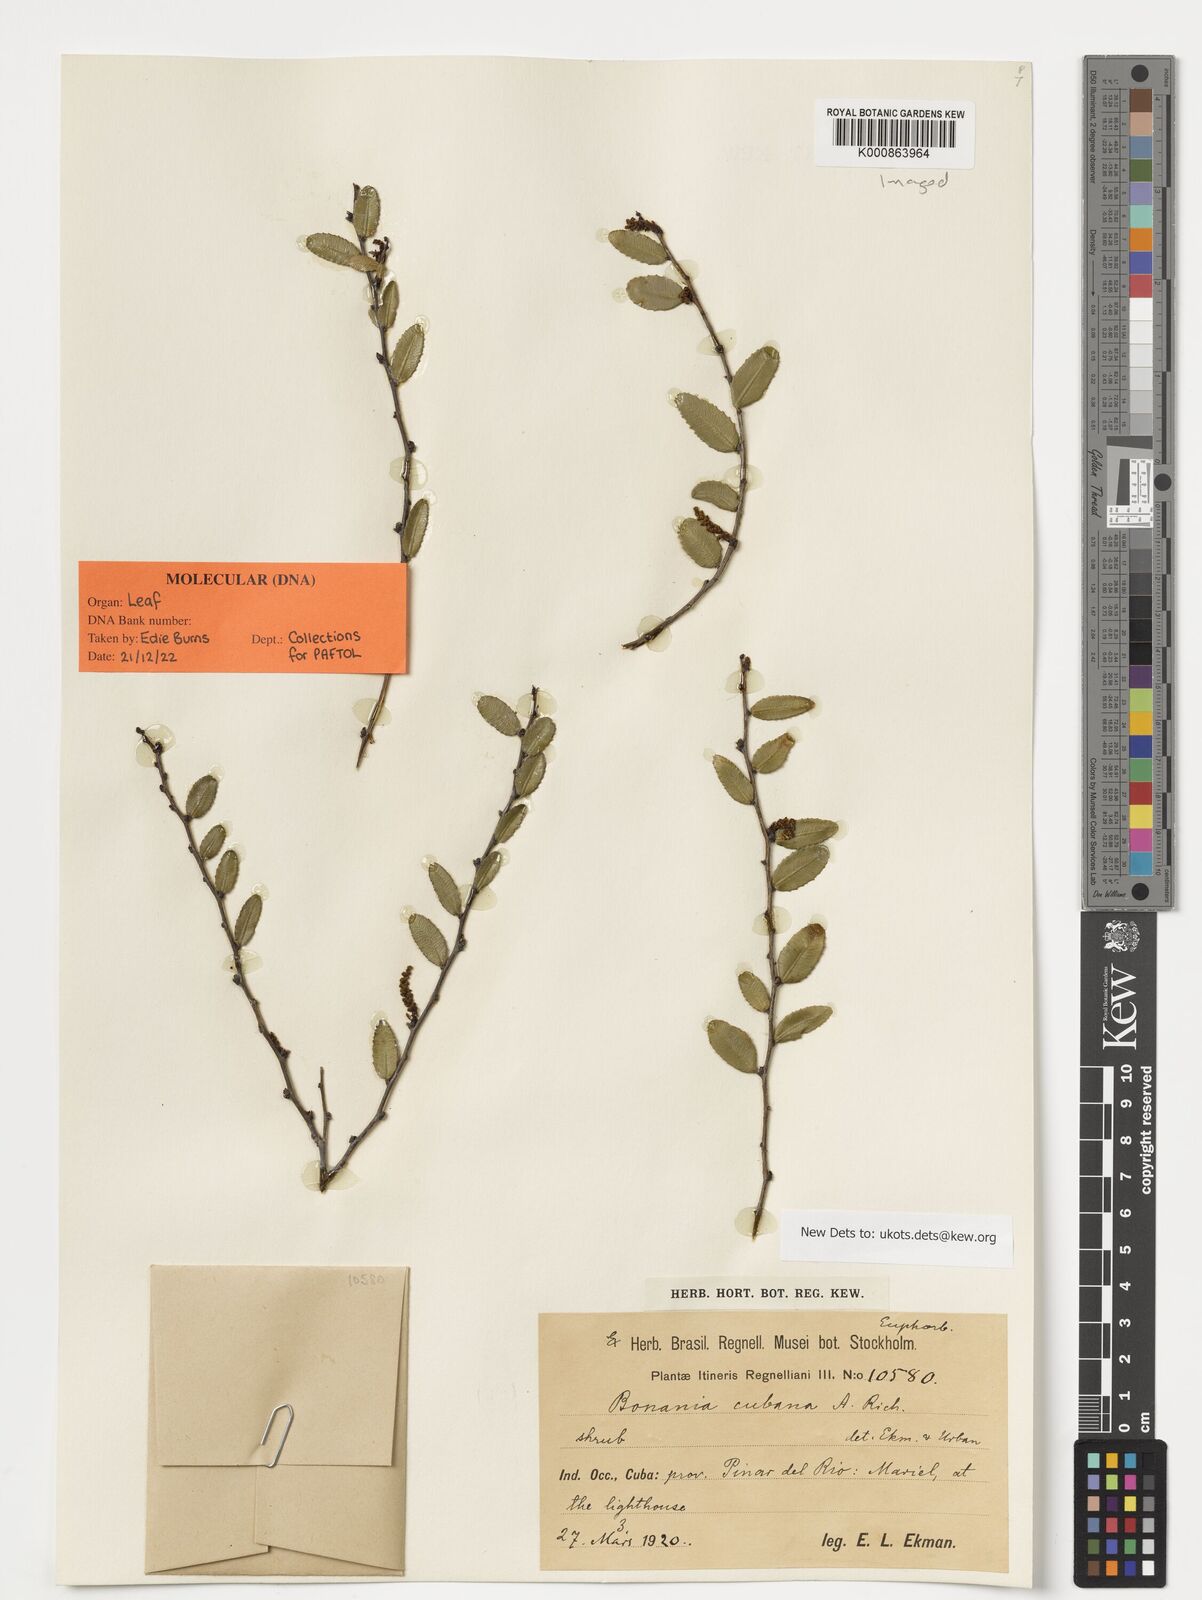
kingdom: Plantae
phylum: Tracheophyta
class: Magnoliopsida
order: Malpighiales
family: Euphorbiaceae
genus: Bonania
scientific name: Bonania cubana
